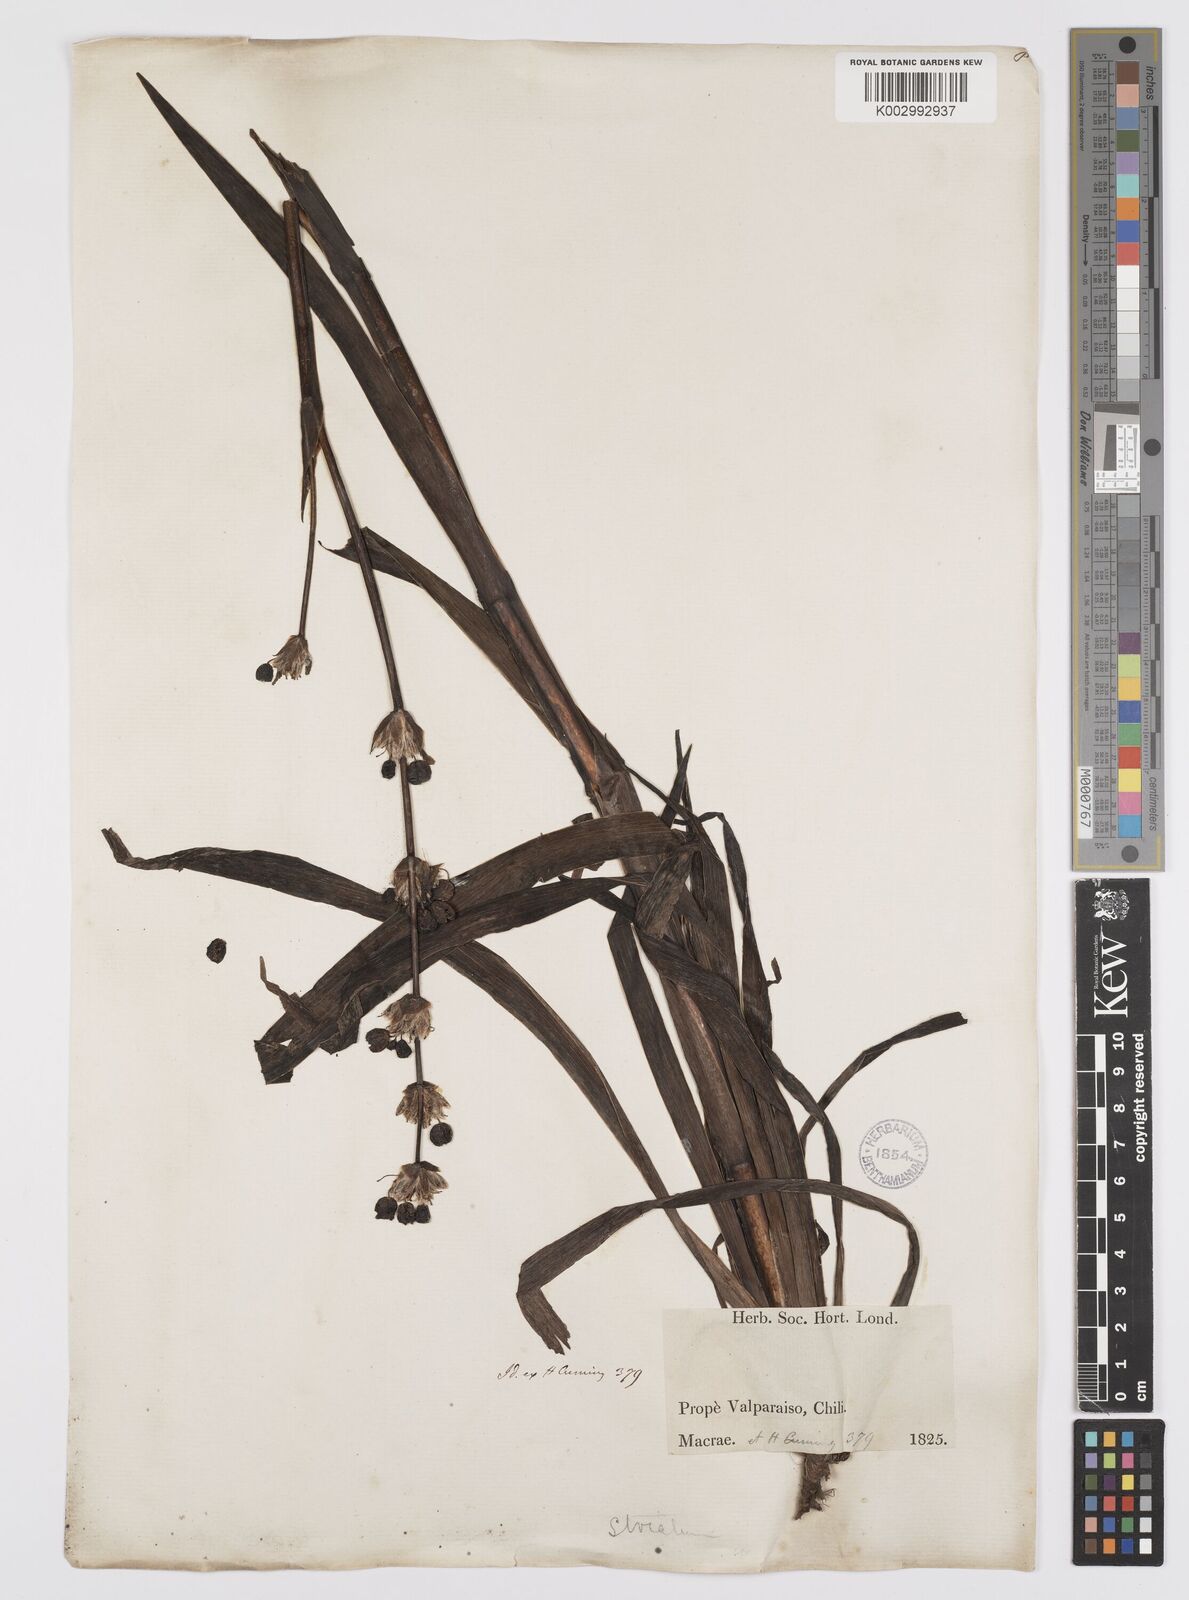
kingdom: Plantae
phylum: Tracheophyta
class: Liliopsida
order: Asparagales
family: Iridaceae
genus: Sisyrinchium
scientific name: Sisyrinchium striatum
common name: Pale yellow-eyed-grass
